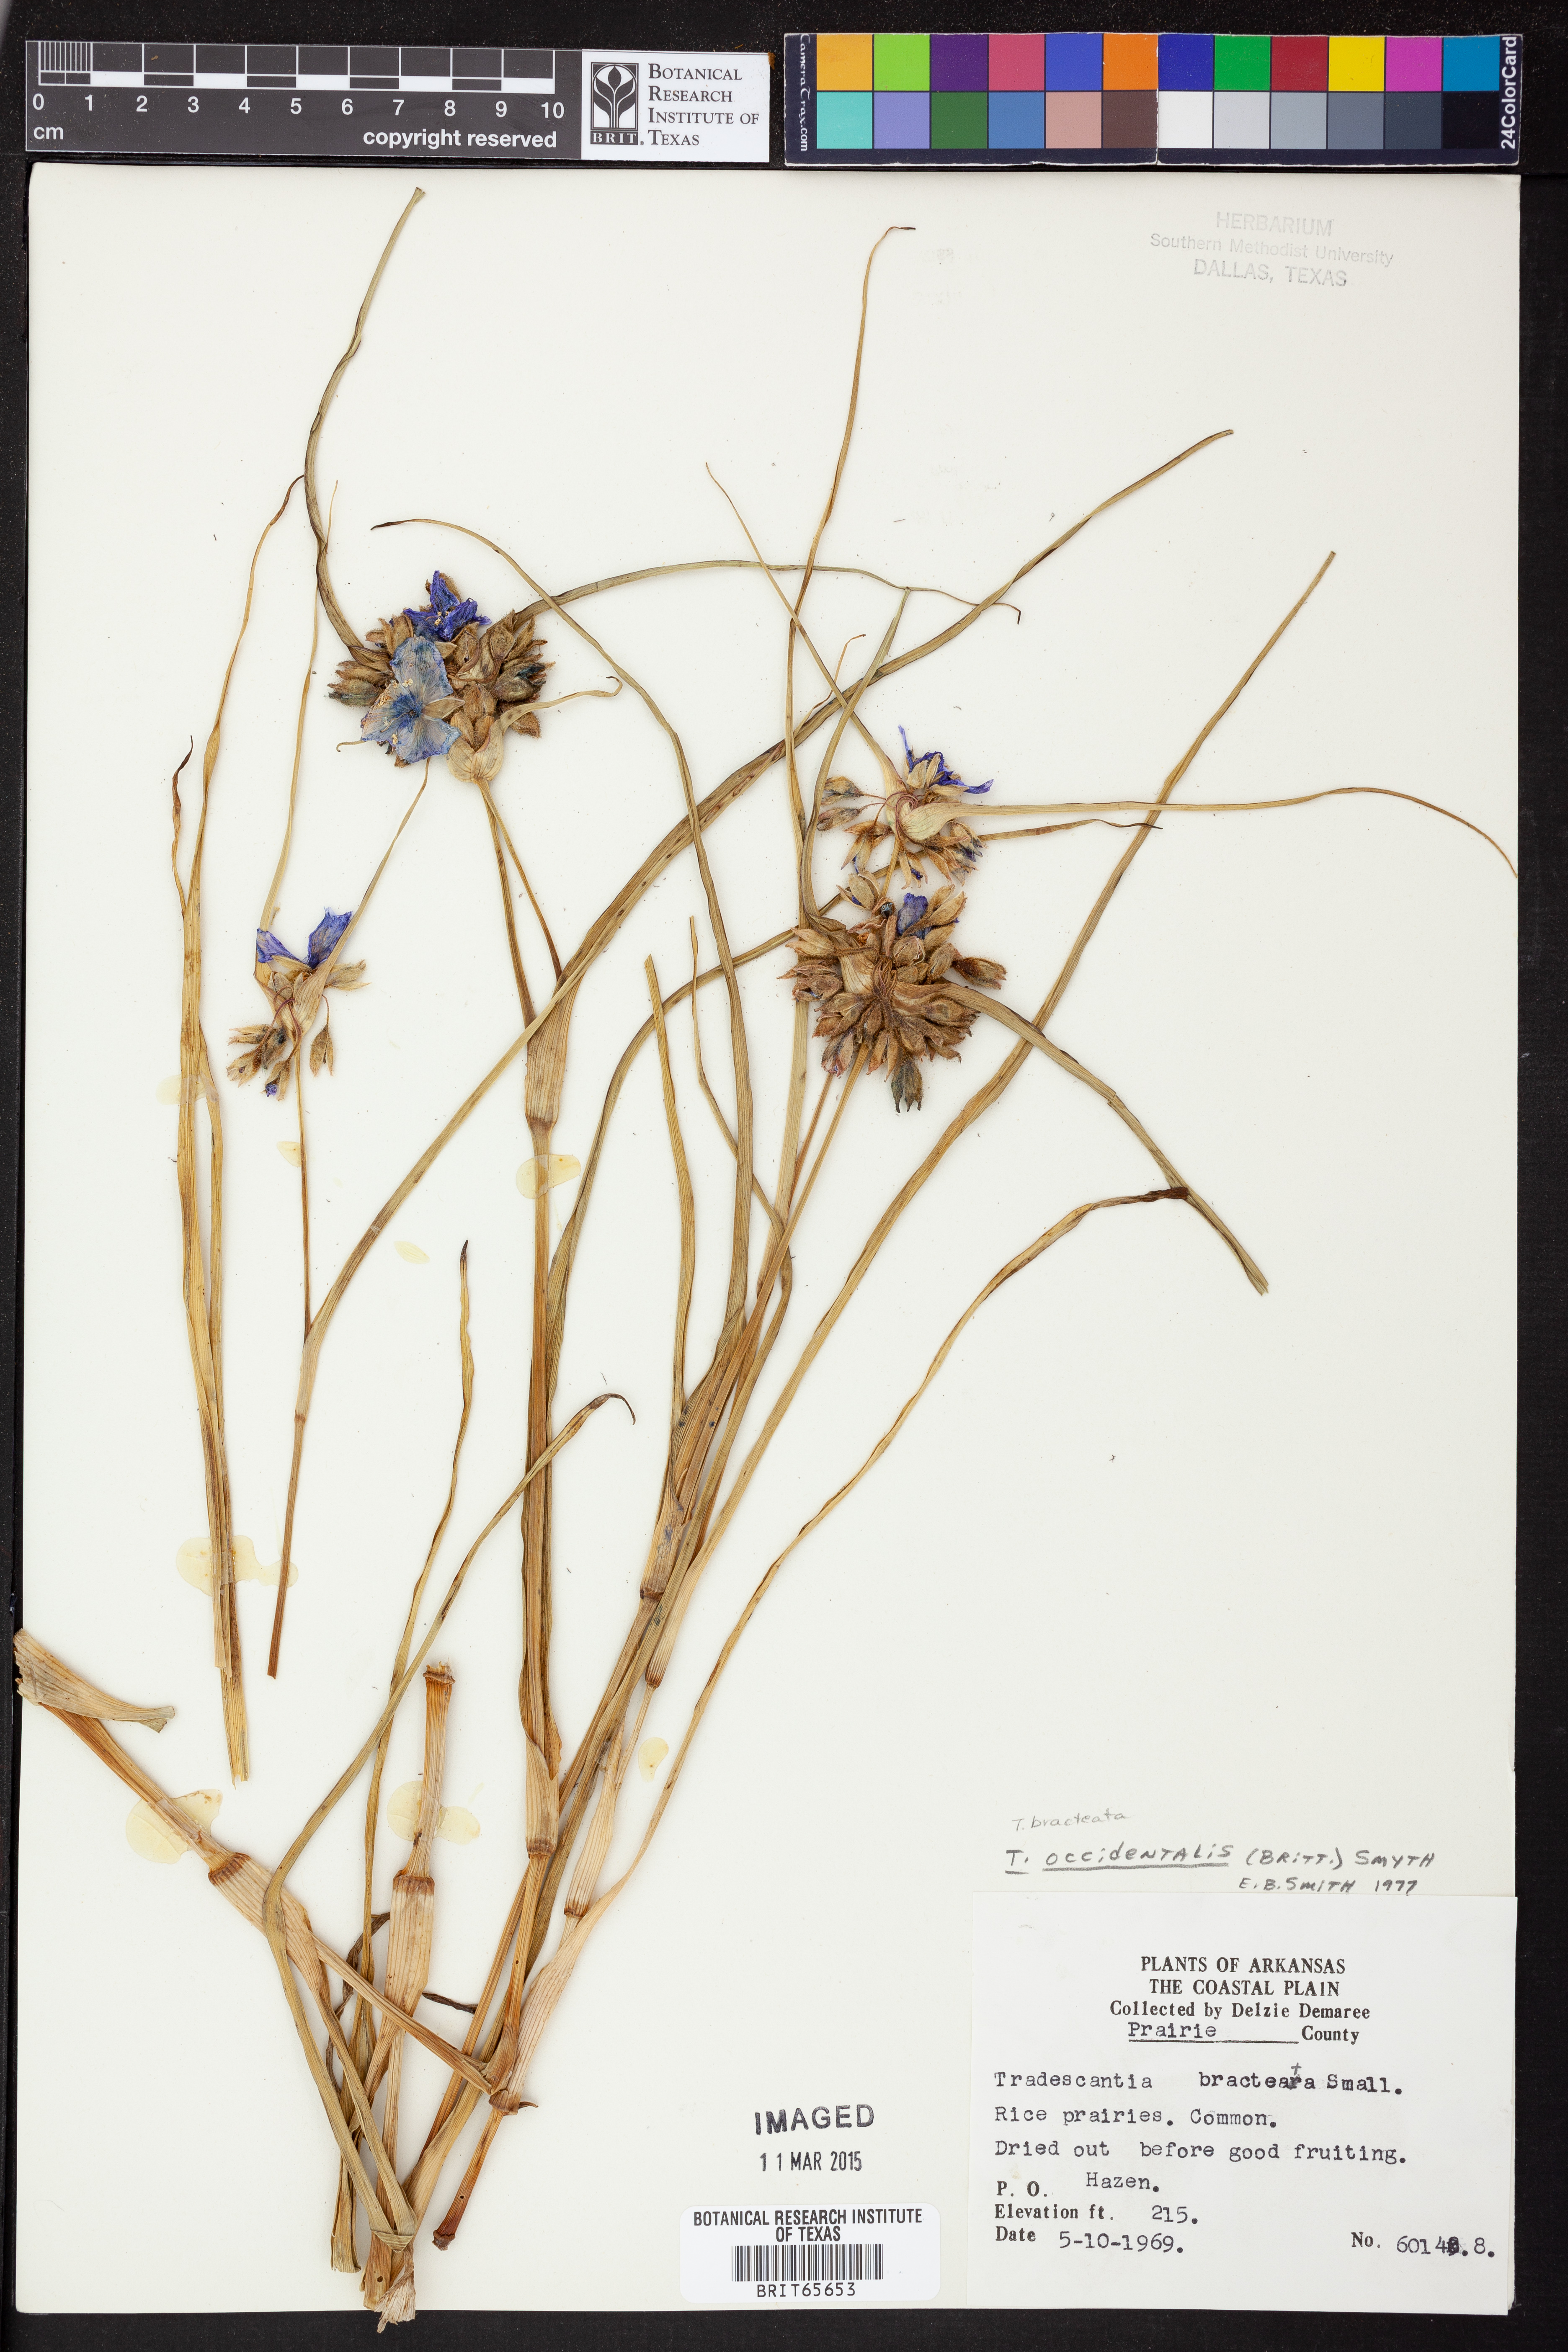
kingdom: Plantae
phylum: Tracheophyta
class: Liliopsida
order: Commelinales
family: Commelinaceae
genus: Tradescantia
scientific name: Tradescantia occidentalis
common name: Prairie spiderwort
